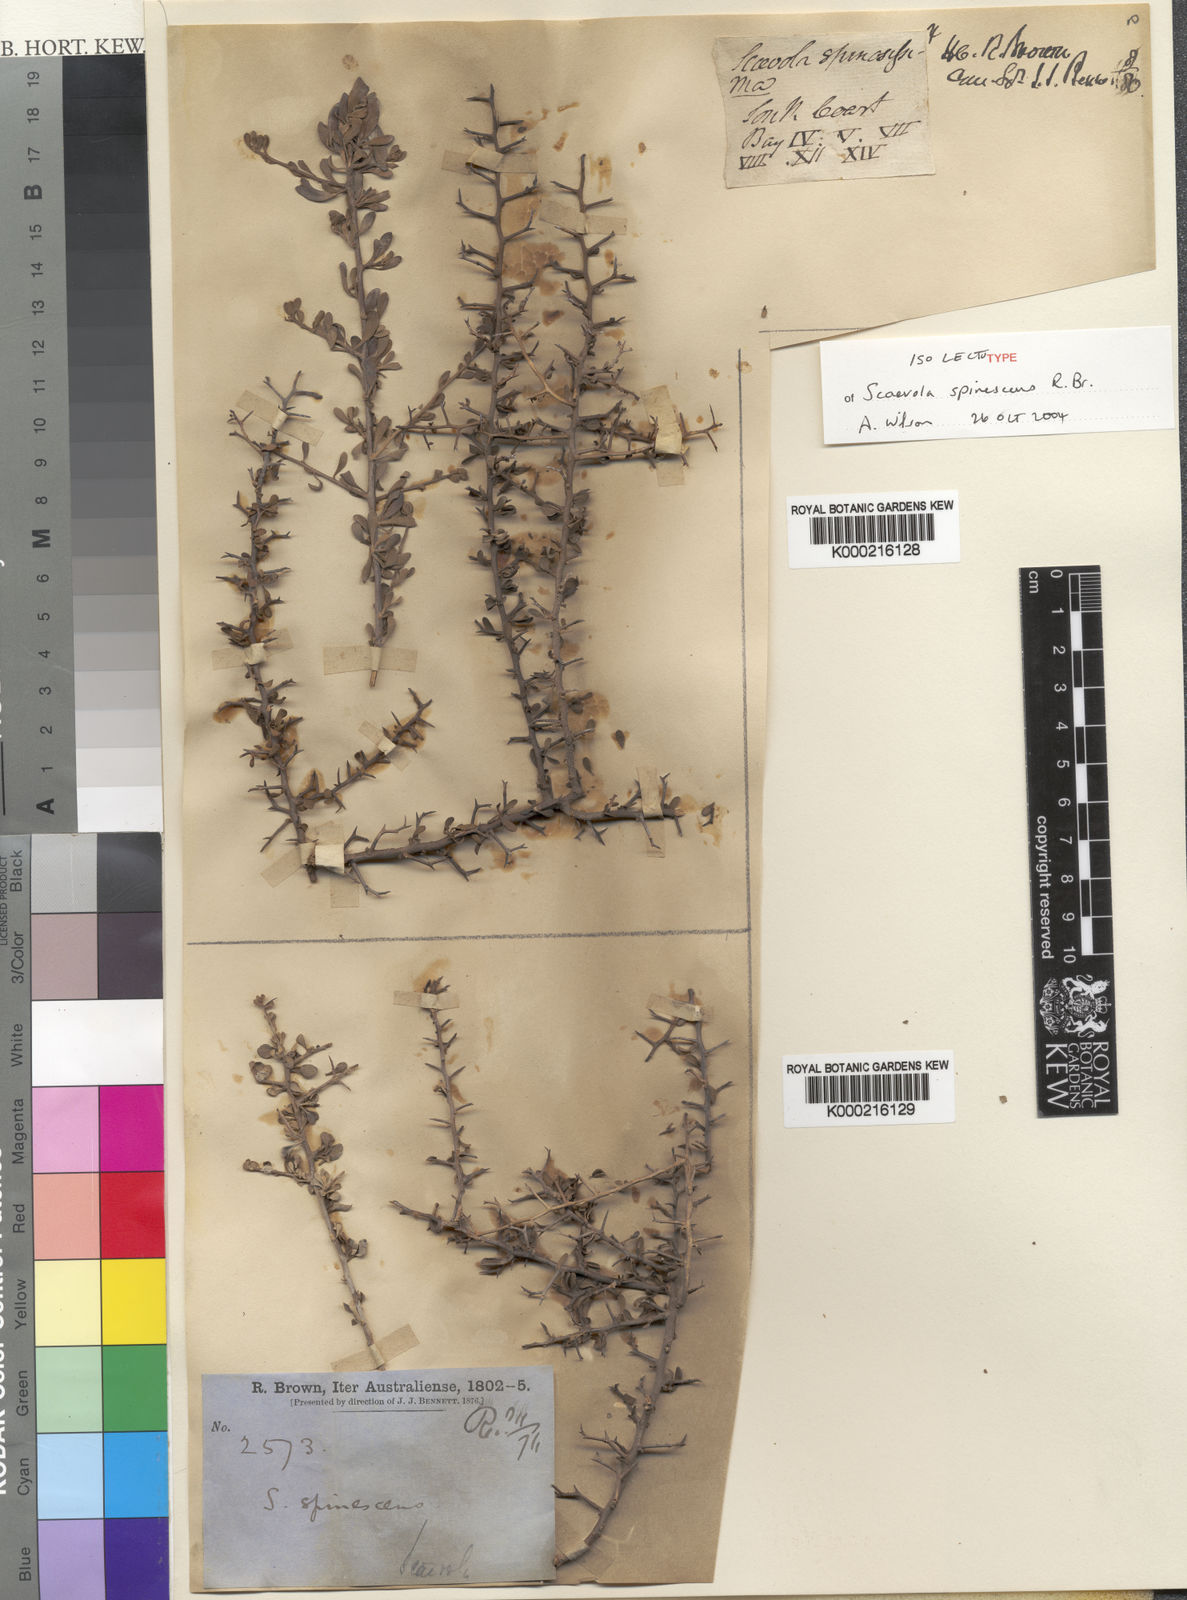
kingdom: Plantae
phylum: Tracheophyta
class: Magnoliopsida
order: Asterales
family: Goodeniaceae
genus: Scaevola
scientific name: Scaevola spinescens
